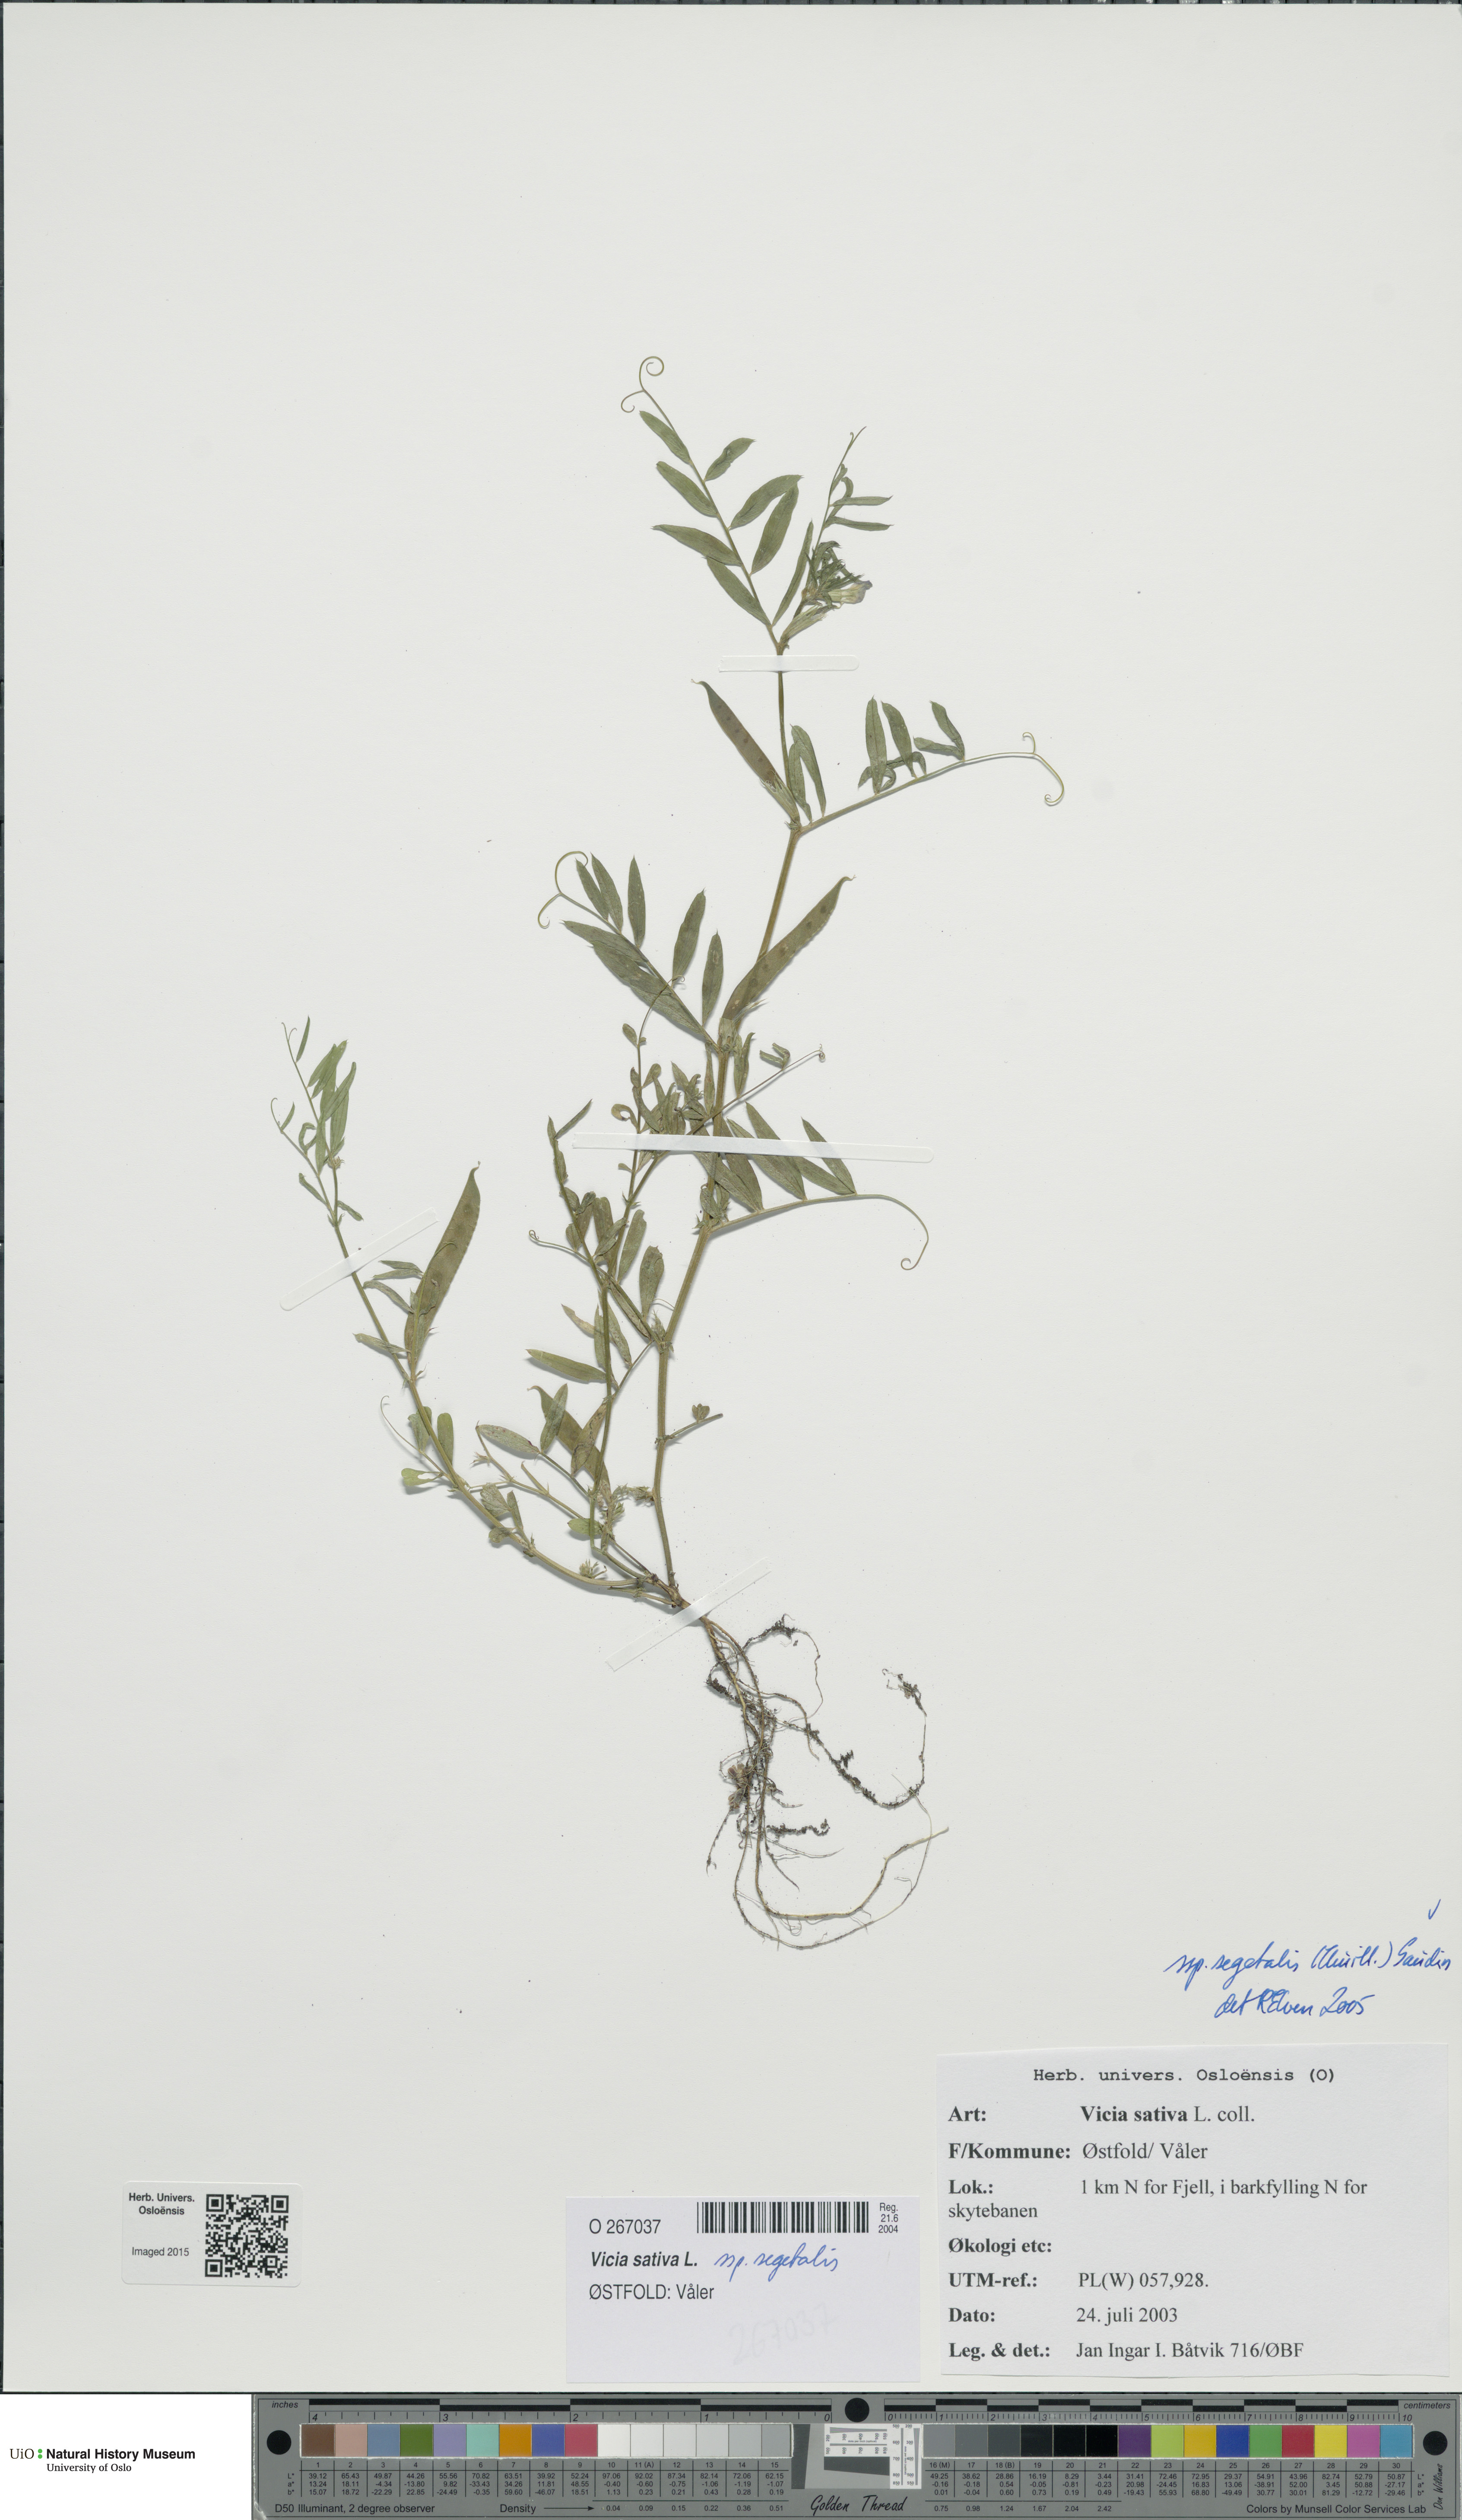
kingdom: Plantae
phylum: Tracheophyta
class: Magnoliopsida
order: Fabales
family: Fabaceae
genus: Vicia
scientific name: Vicia sativa
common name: Garden vetch
